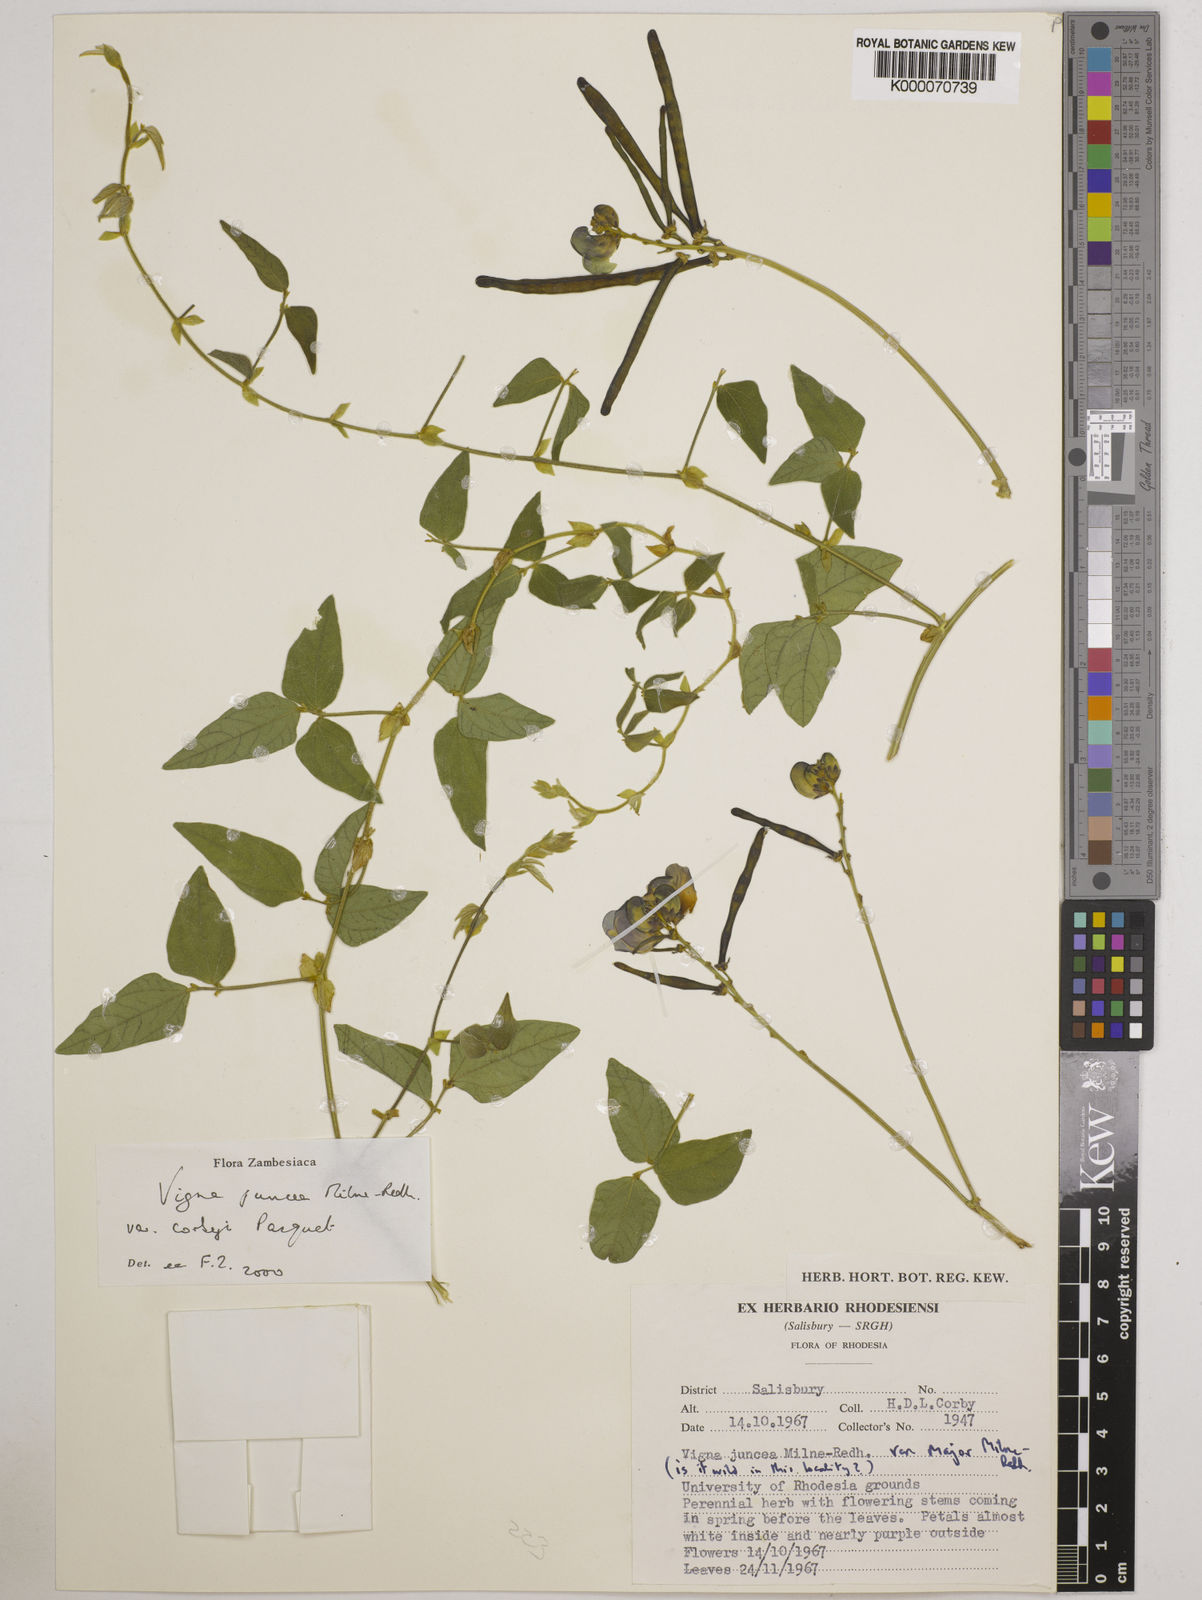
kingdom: Plantae
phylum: Tracheophyta
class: Magnoliopsida
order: Fabales
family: Fabaceae
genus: Vigna
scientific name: Vigna juncea
